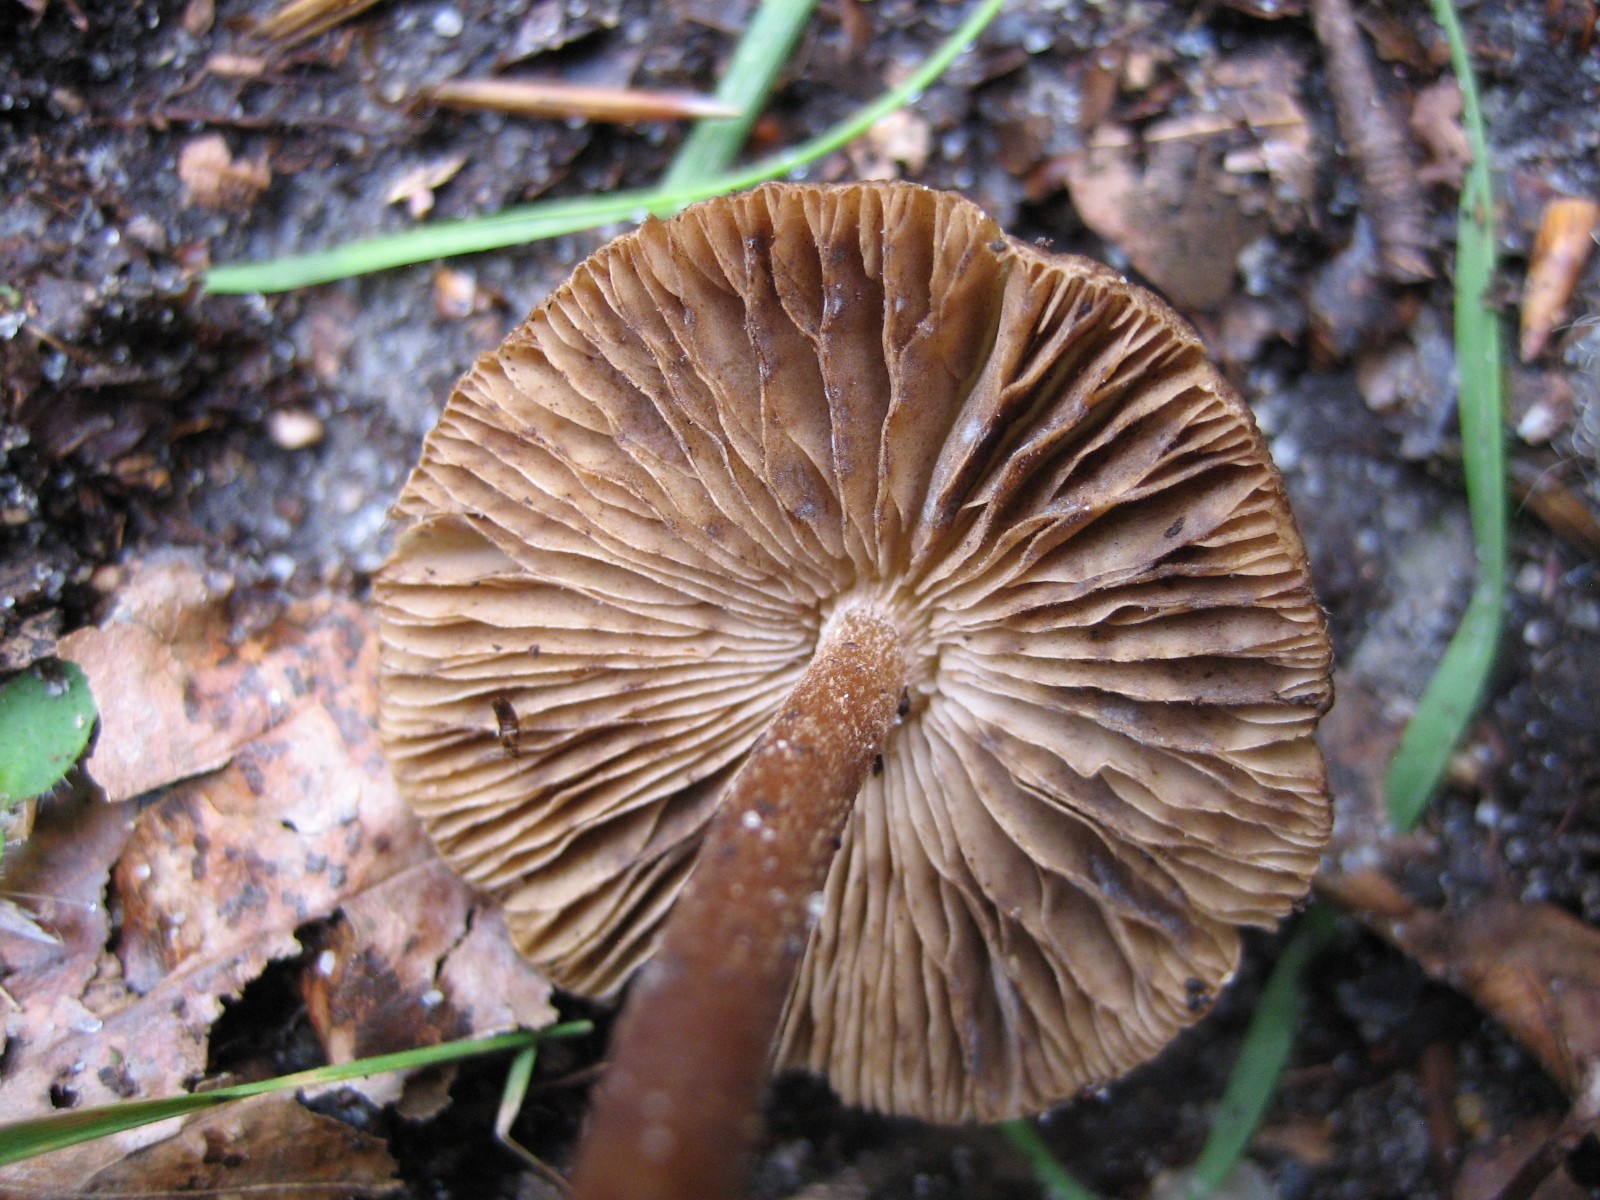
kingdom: Fungi
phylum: Basidiomycota
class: Agaricomycetes
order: Agaricales
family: Inocybaceae
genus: Inocybe
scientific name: Inocybe
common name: trævlhat
